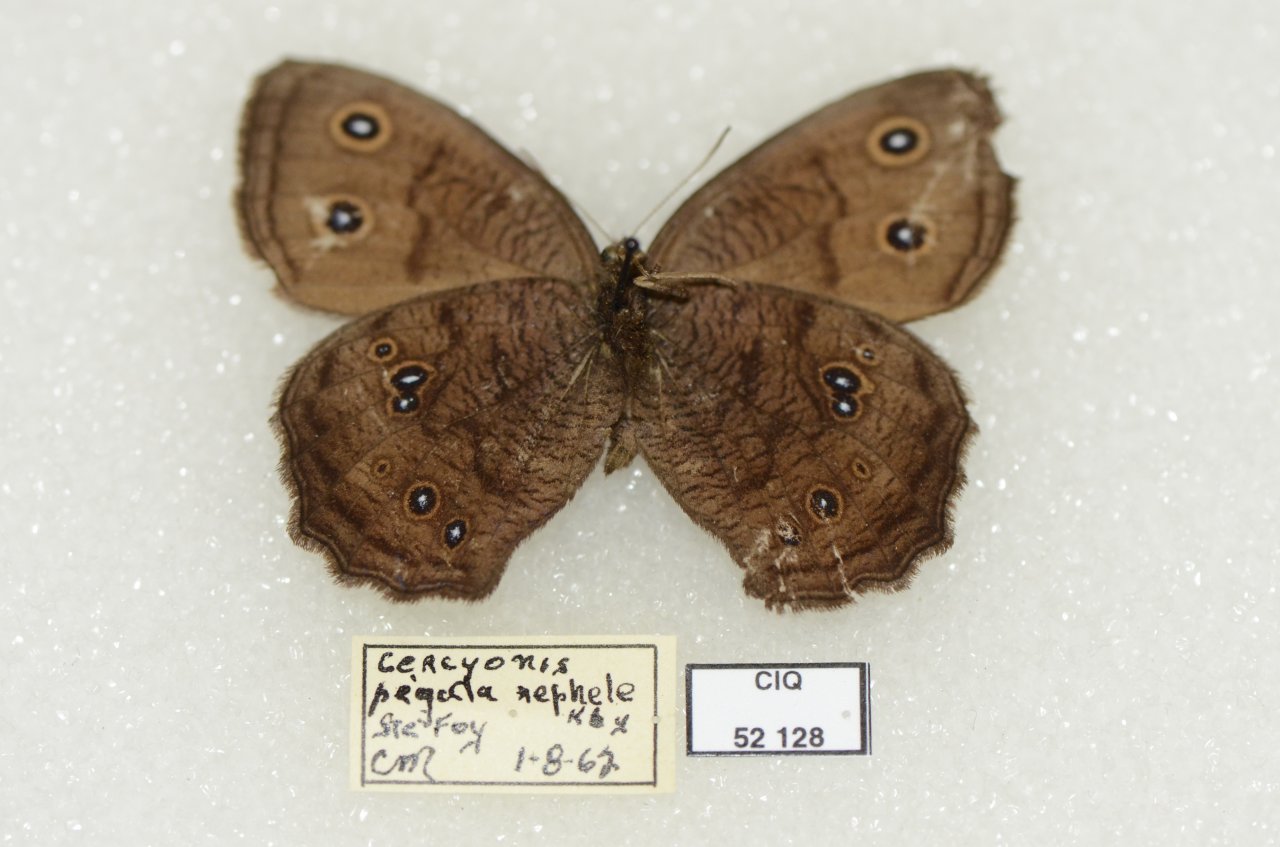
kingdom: Animalia
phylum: Arthropoda
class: Insecta
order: Lepidoptera
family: Nymphalidae
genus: Cercyonis
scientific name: Cercyonis pegala
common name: Common Wood-Nymph
